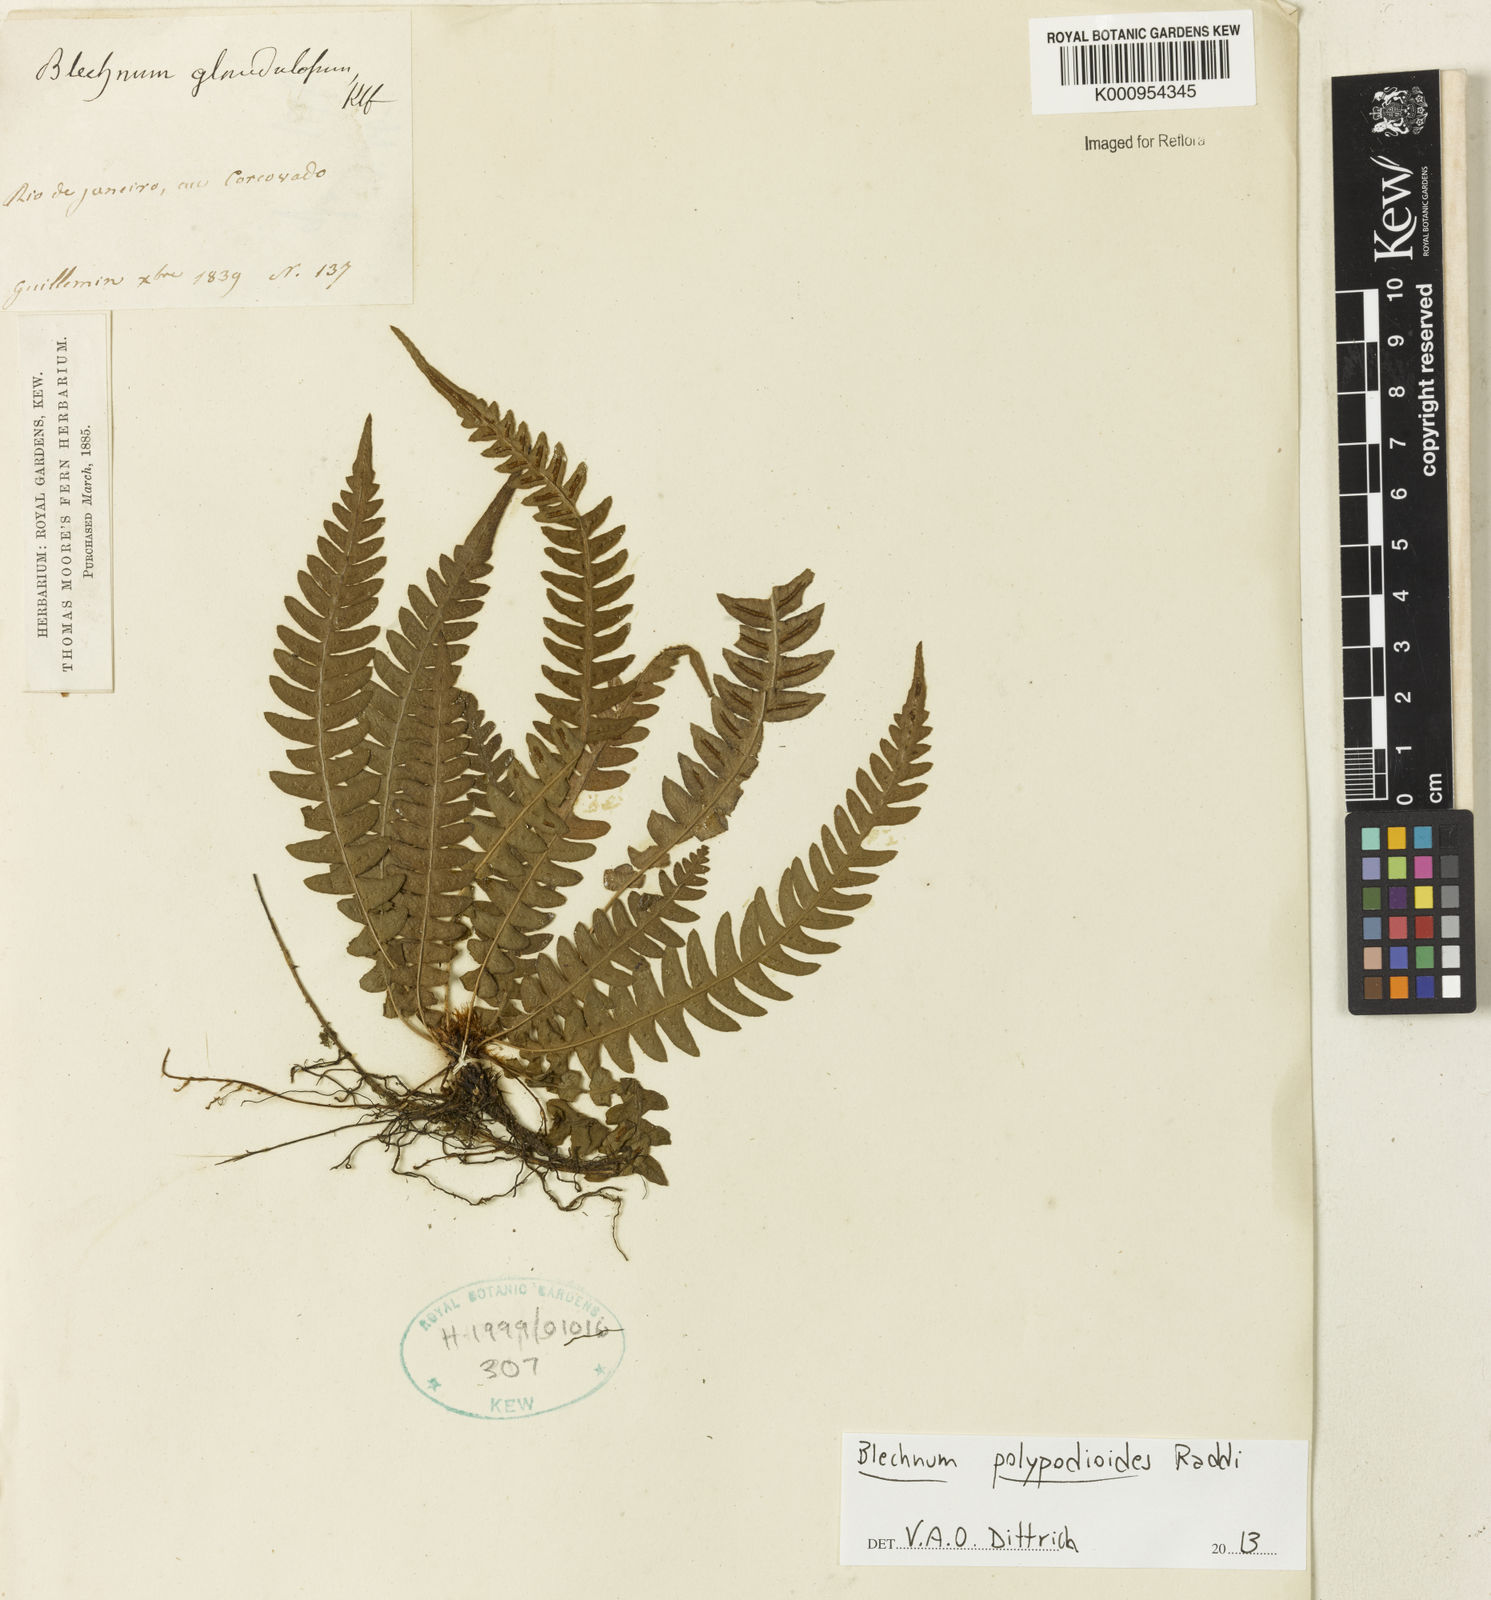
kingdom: Plantae
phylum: Tracheophyta
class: Polypodiopsida
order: Polypodiales
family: Blechnaceae
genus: Blechnum
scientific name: Blechnum appendiculatum
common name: Palm fern
